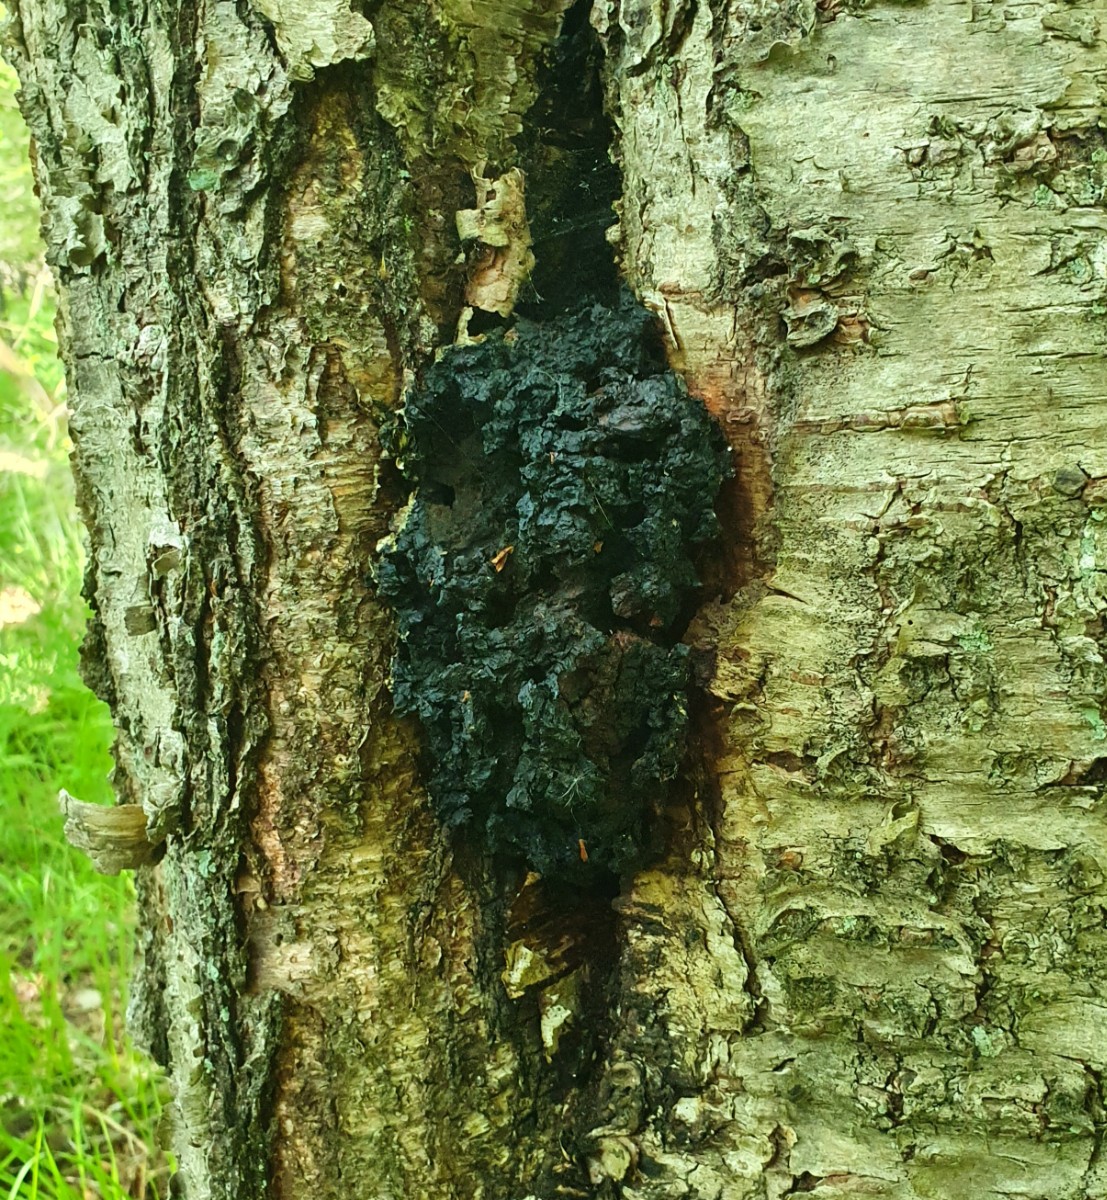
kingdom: Fungi
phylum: Basidiomycota
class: Agaricomycetes
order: Hymenochaetales
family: Hymenochaetaceae
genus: Inonotus
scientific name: Inonotus obliquus
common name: birke-spejlporesvamp
